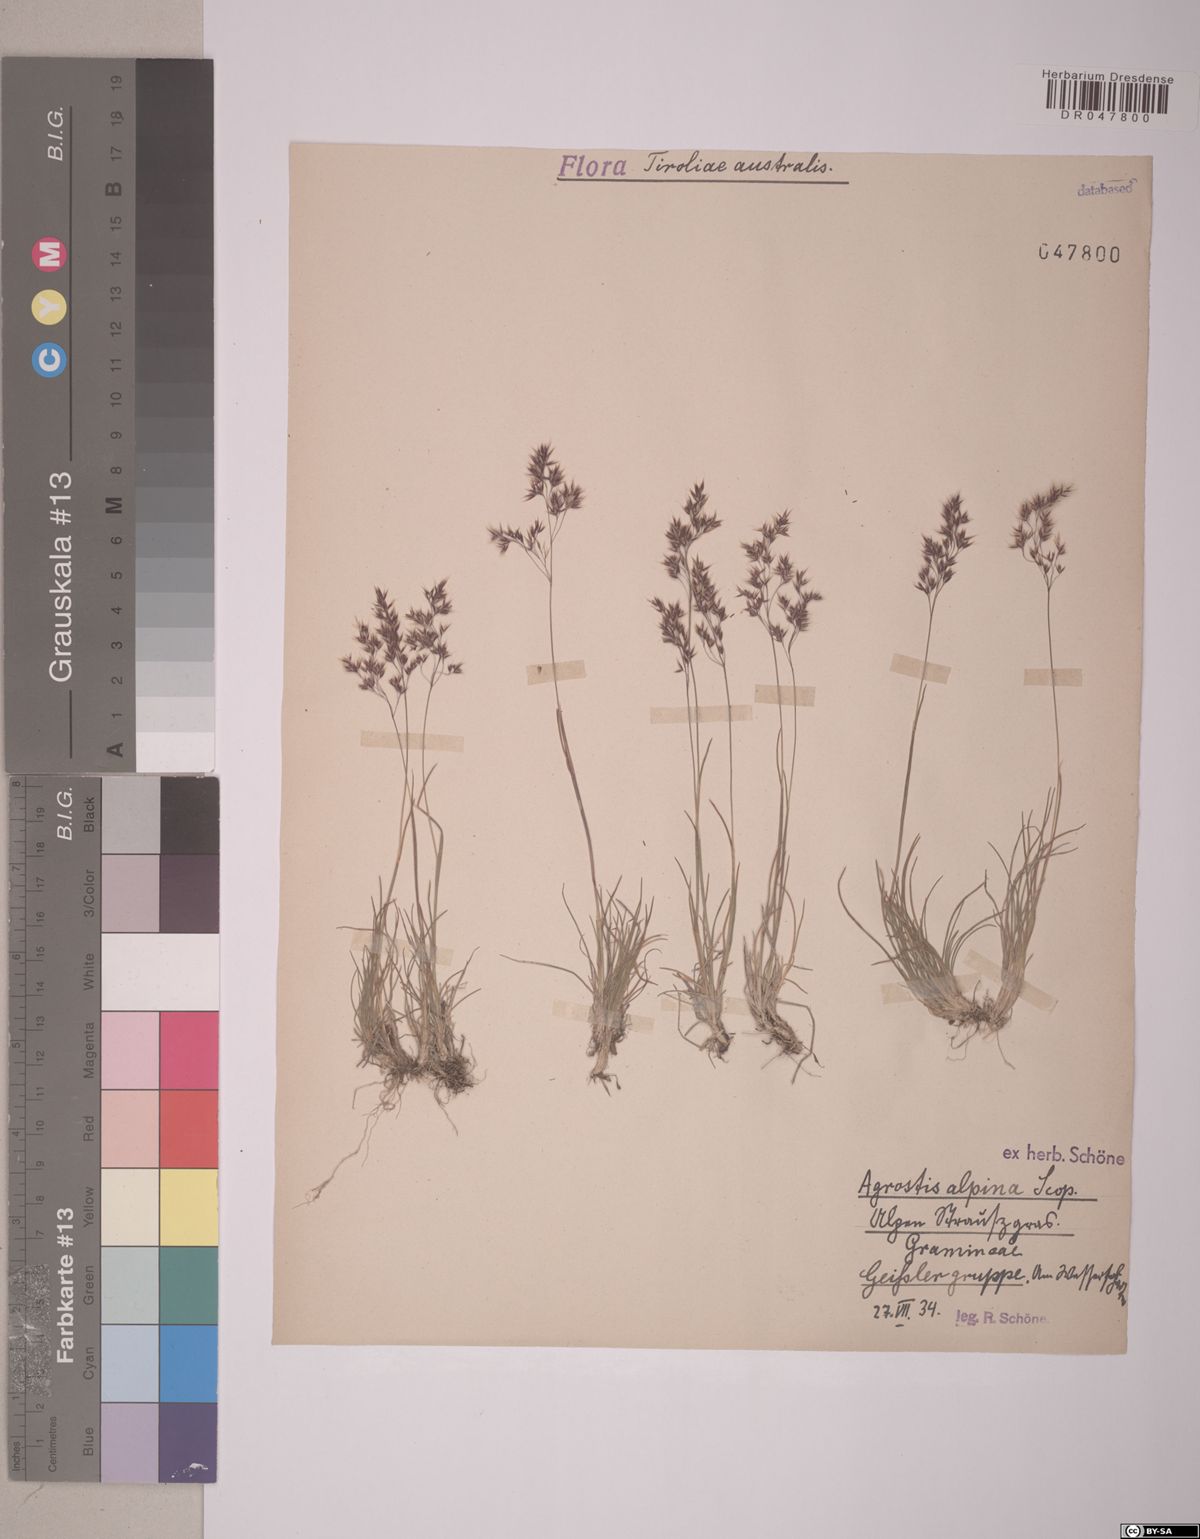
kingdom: Plantae
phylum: Tracheophyta
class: Liliopsida
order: Poales
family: Poaceae
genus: Alpagrostis
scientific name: Alpagrostis alpina
